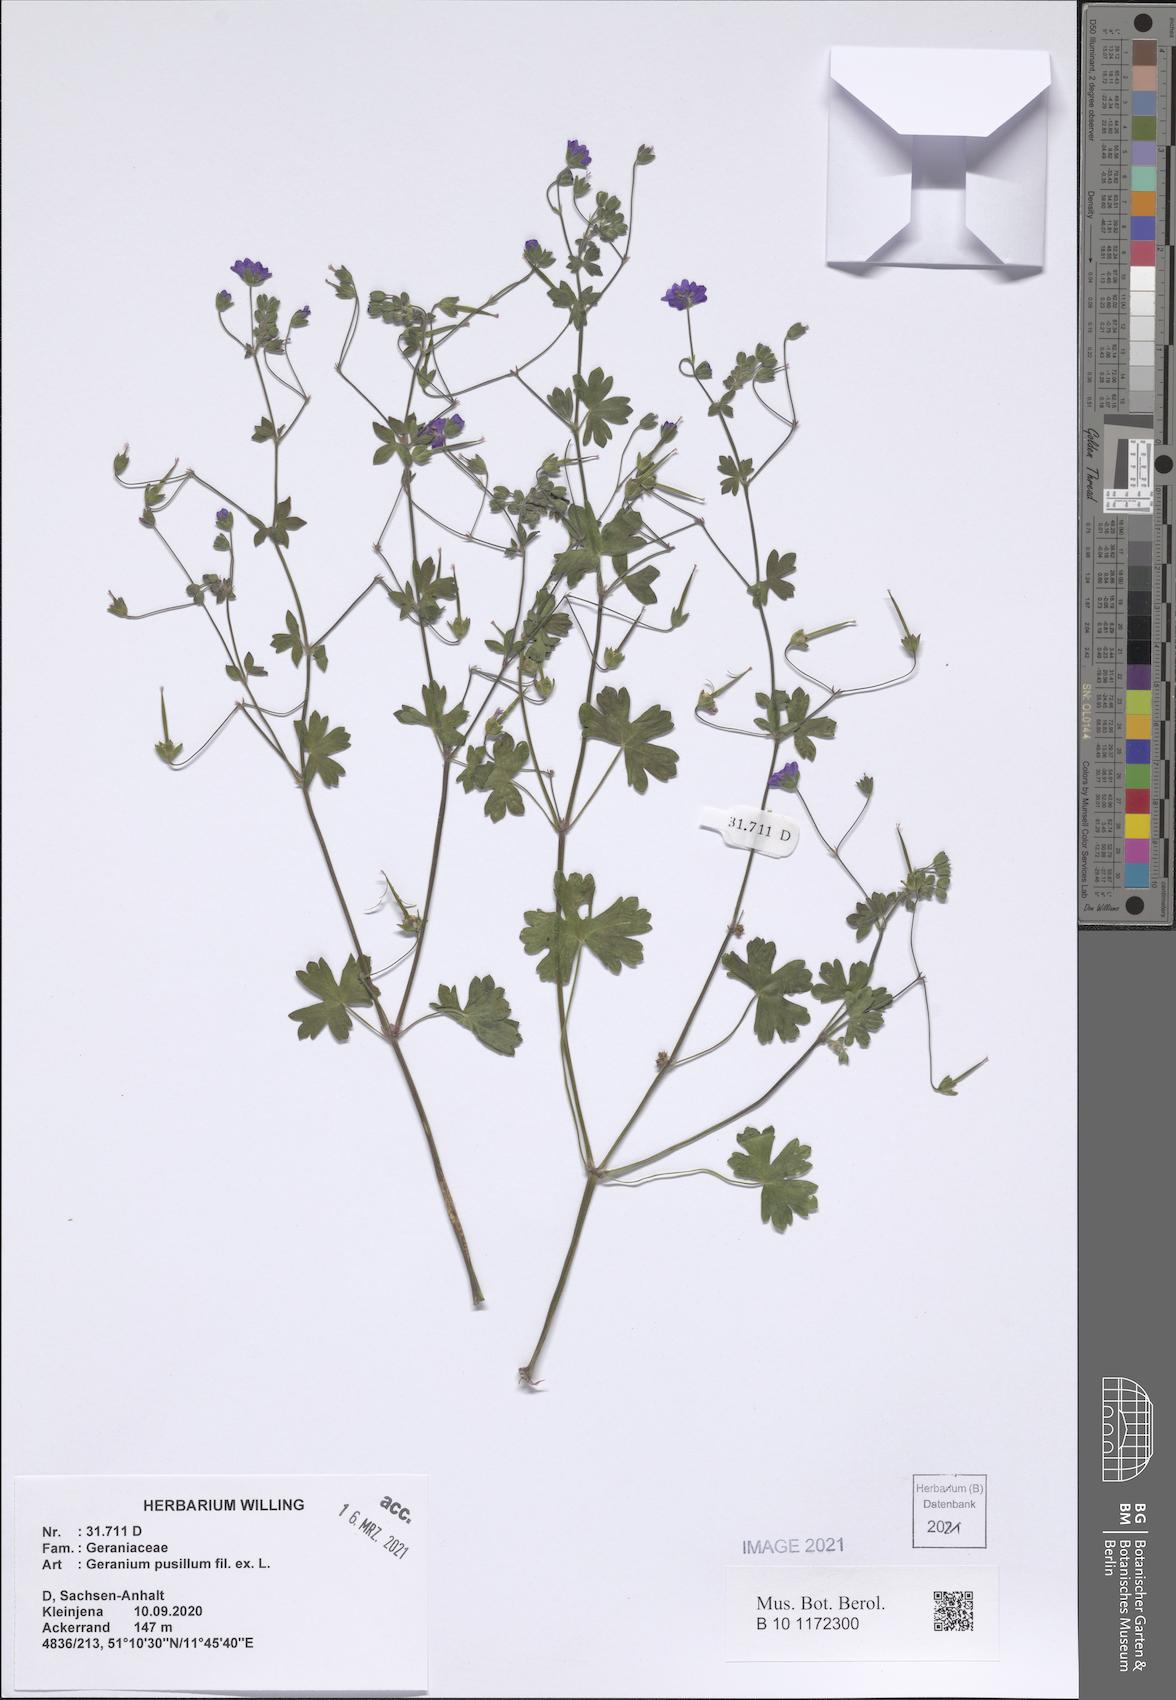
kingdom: Plantae
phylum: Tracheophyta
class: Magnoliopsida
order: Geraniales
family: Geraniaceae
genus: Geranium
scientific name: Geranium pusillum
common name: Small geranium
